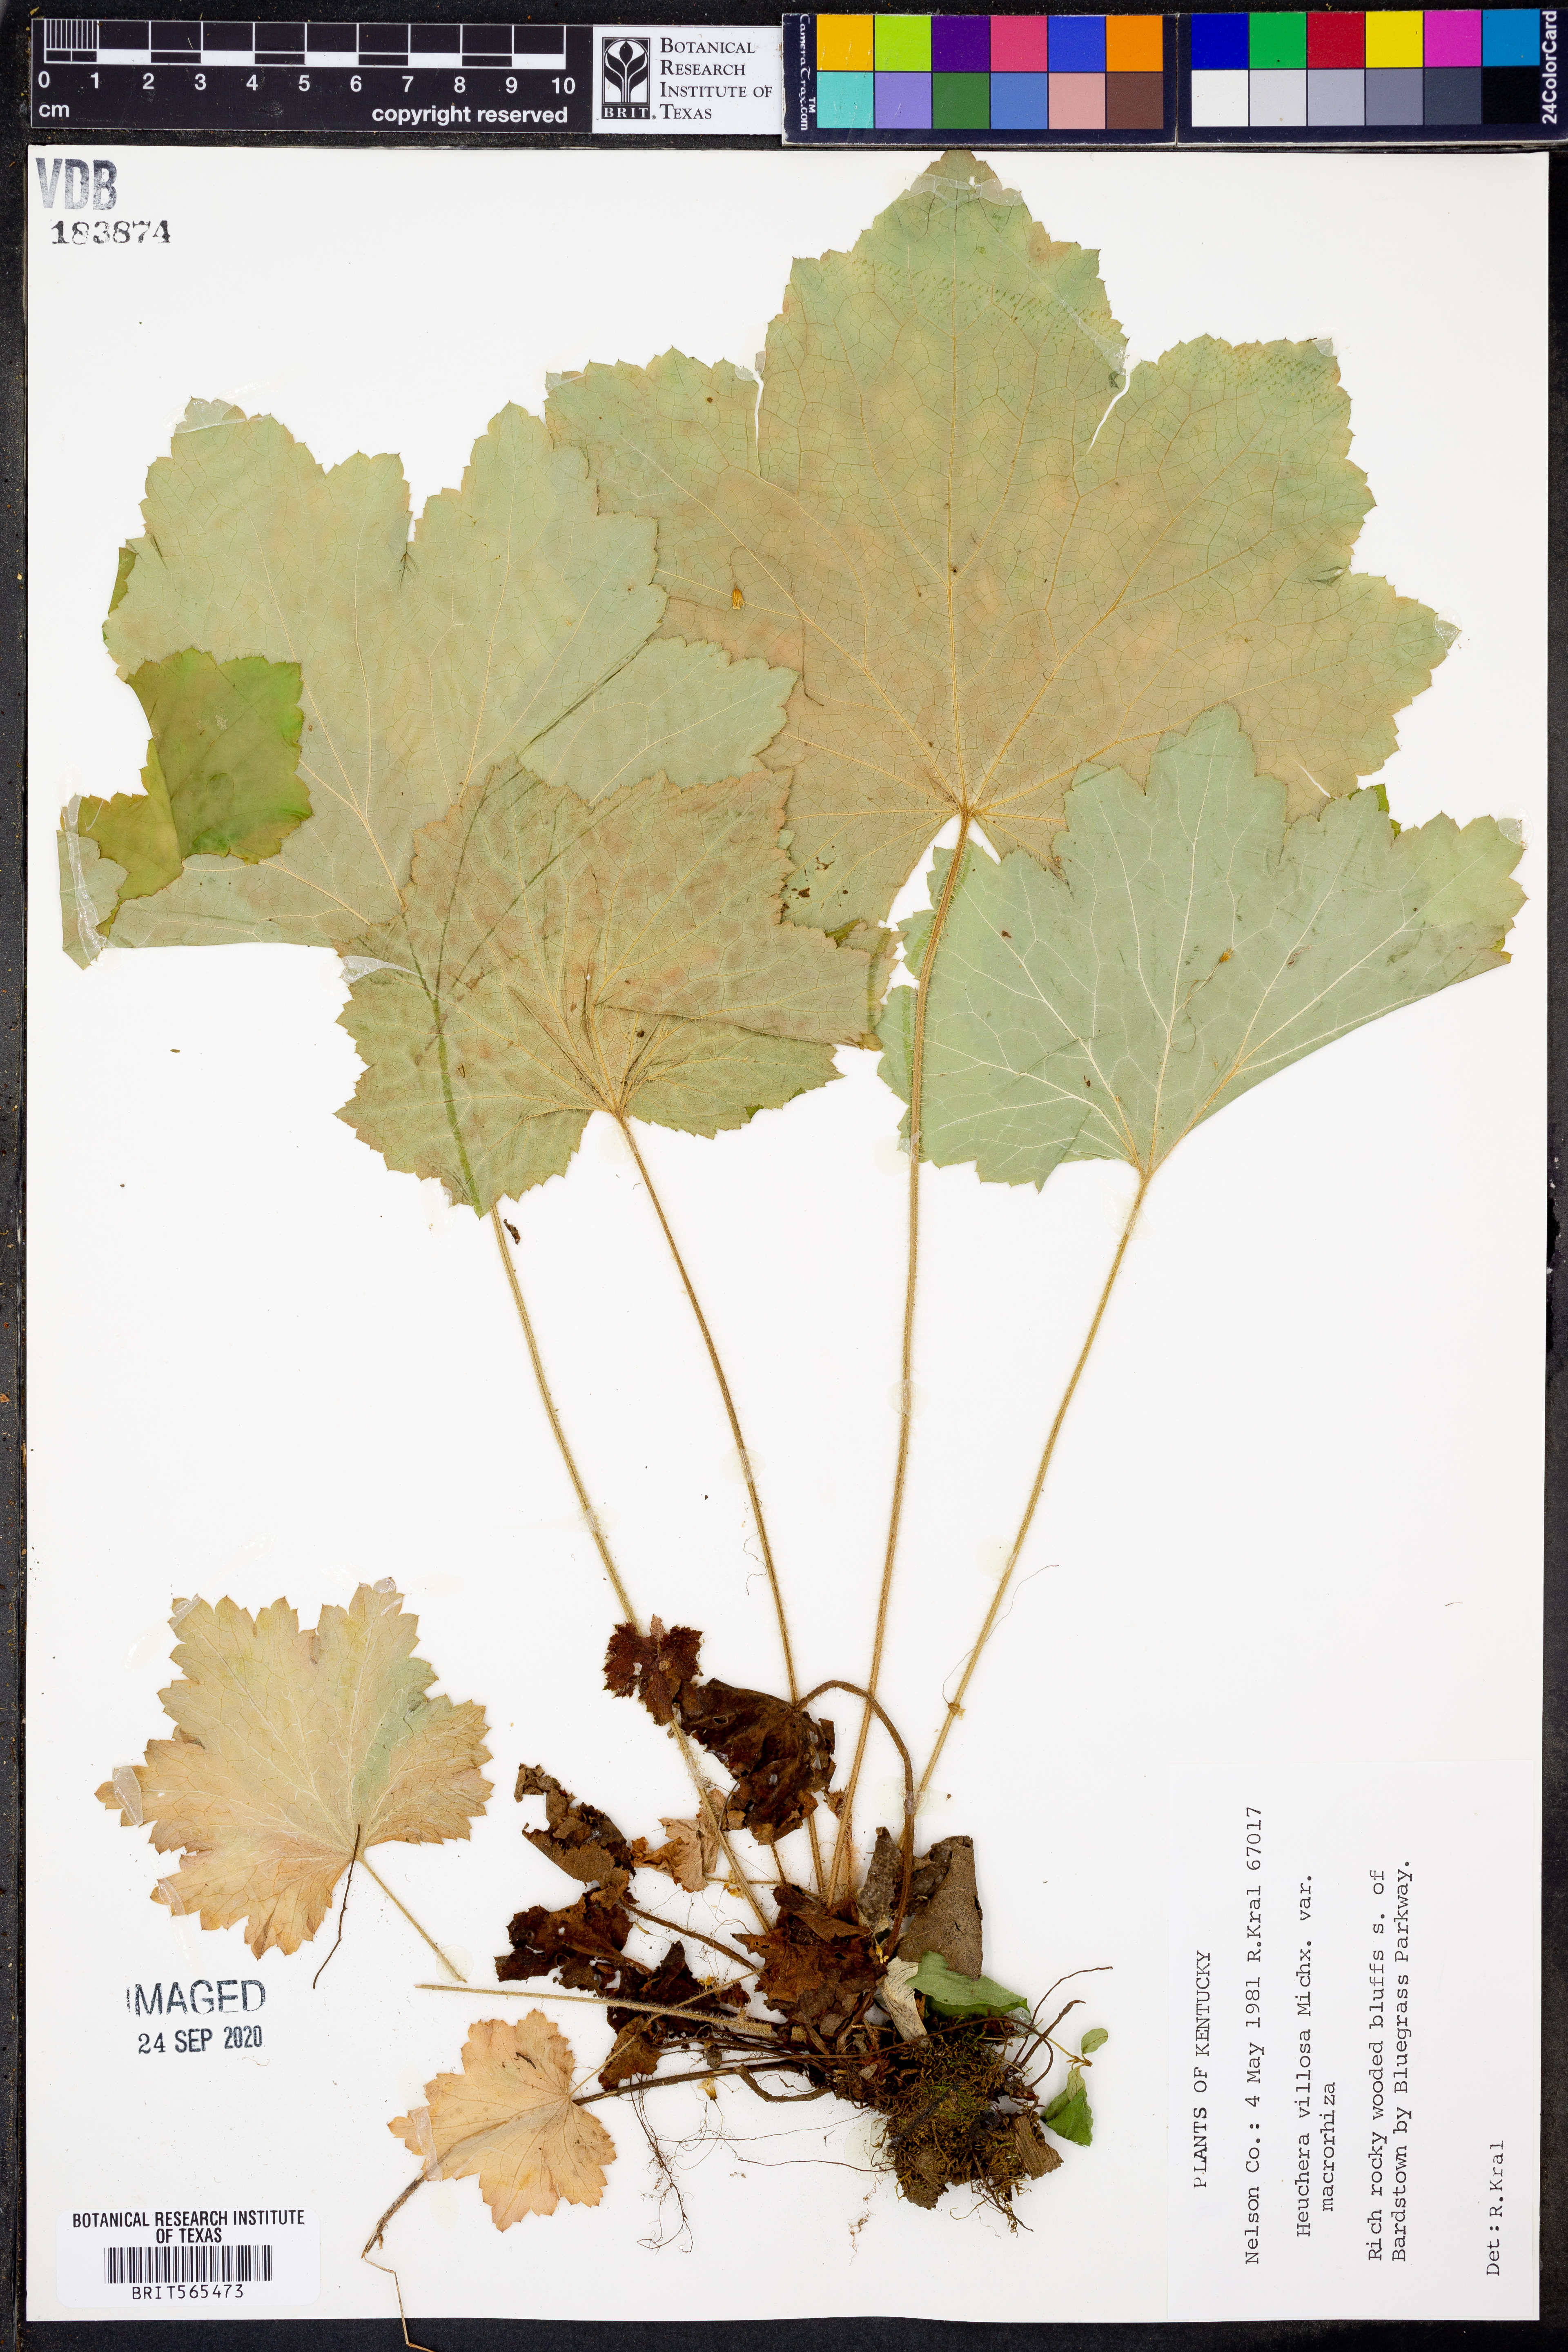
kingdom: Plantae
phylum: Tracheophyta
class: Magnoliopsida
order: Saxifragales
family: Saxifragaceae
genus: Heuchera
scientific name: Heuchera villosa
